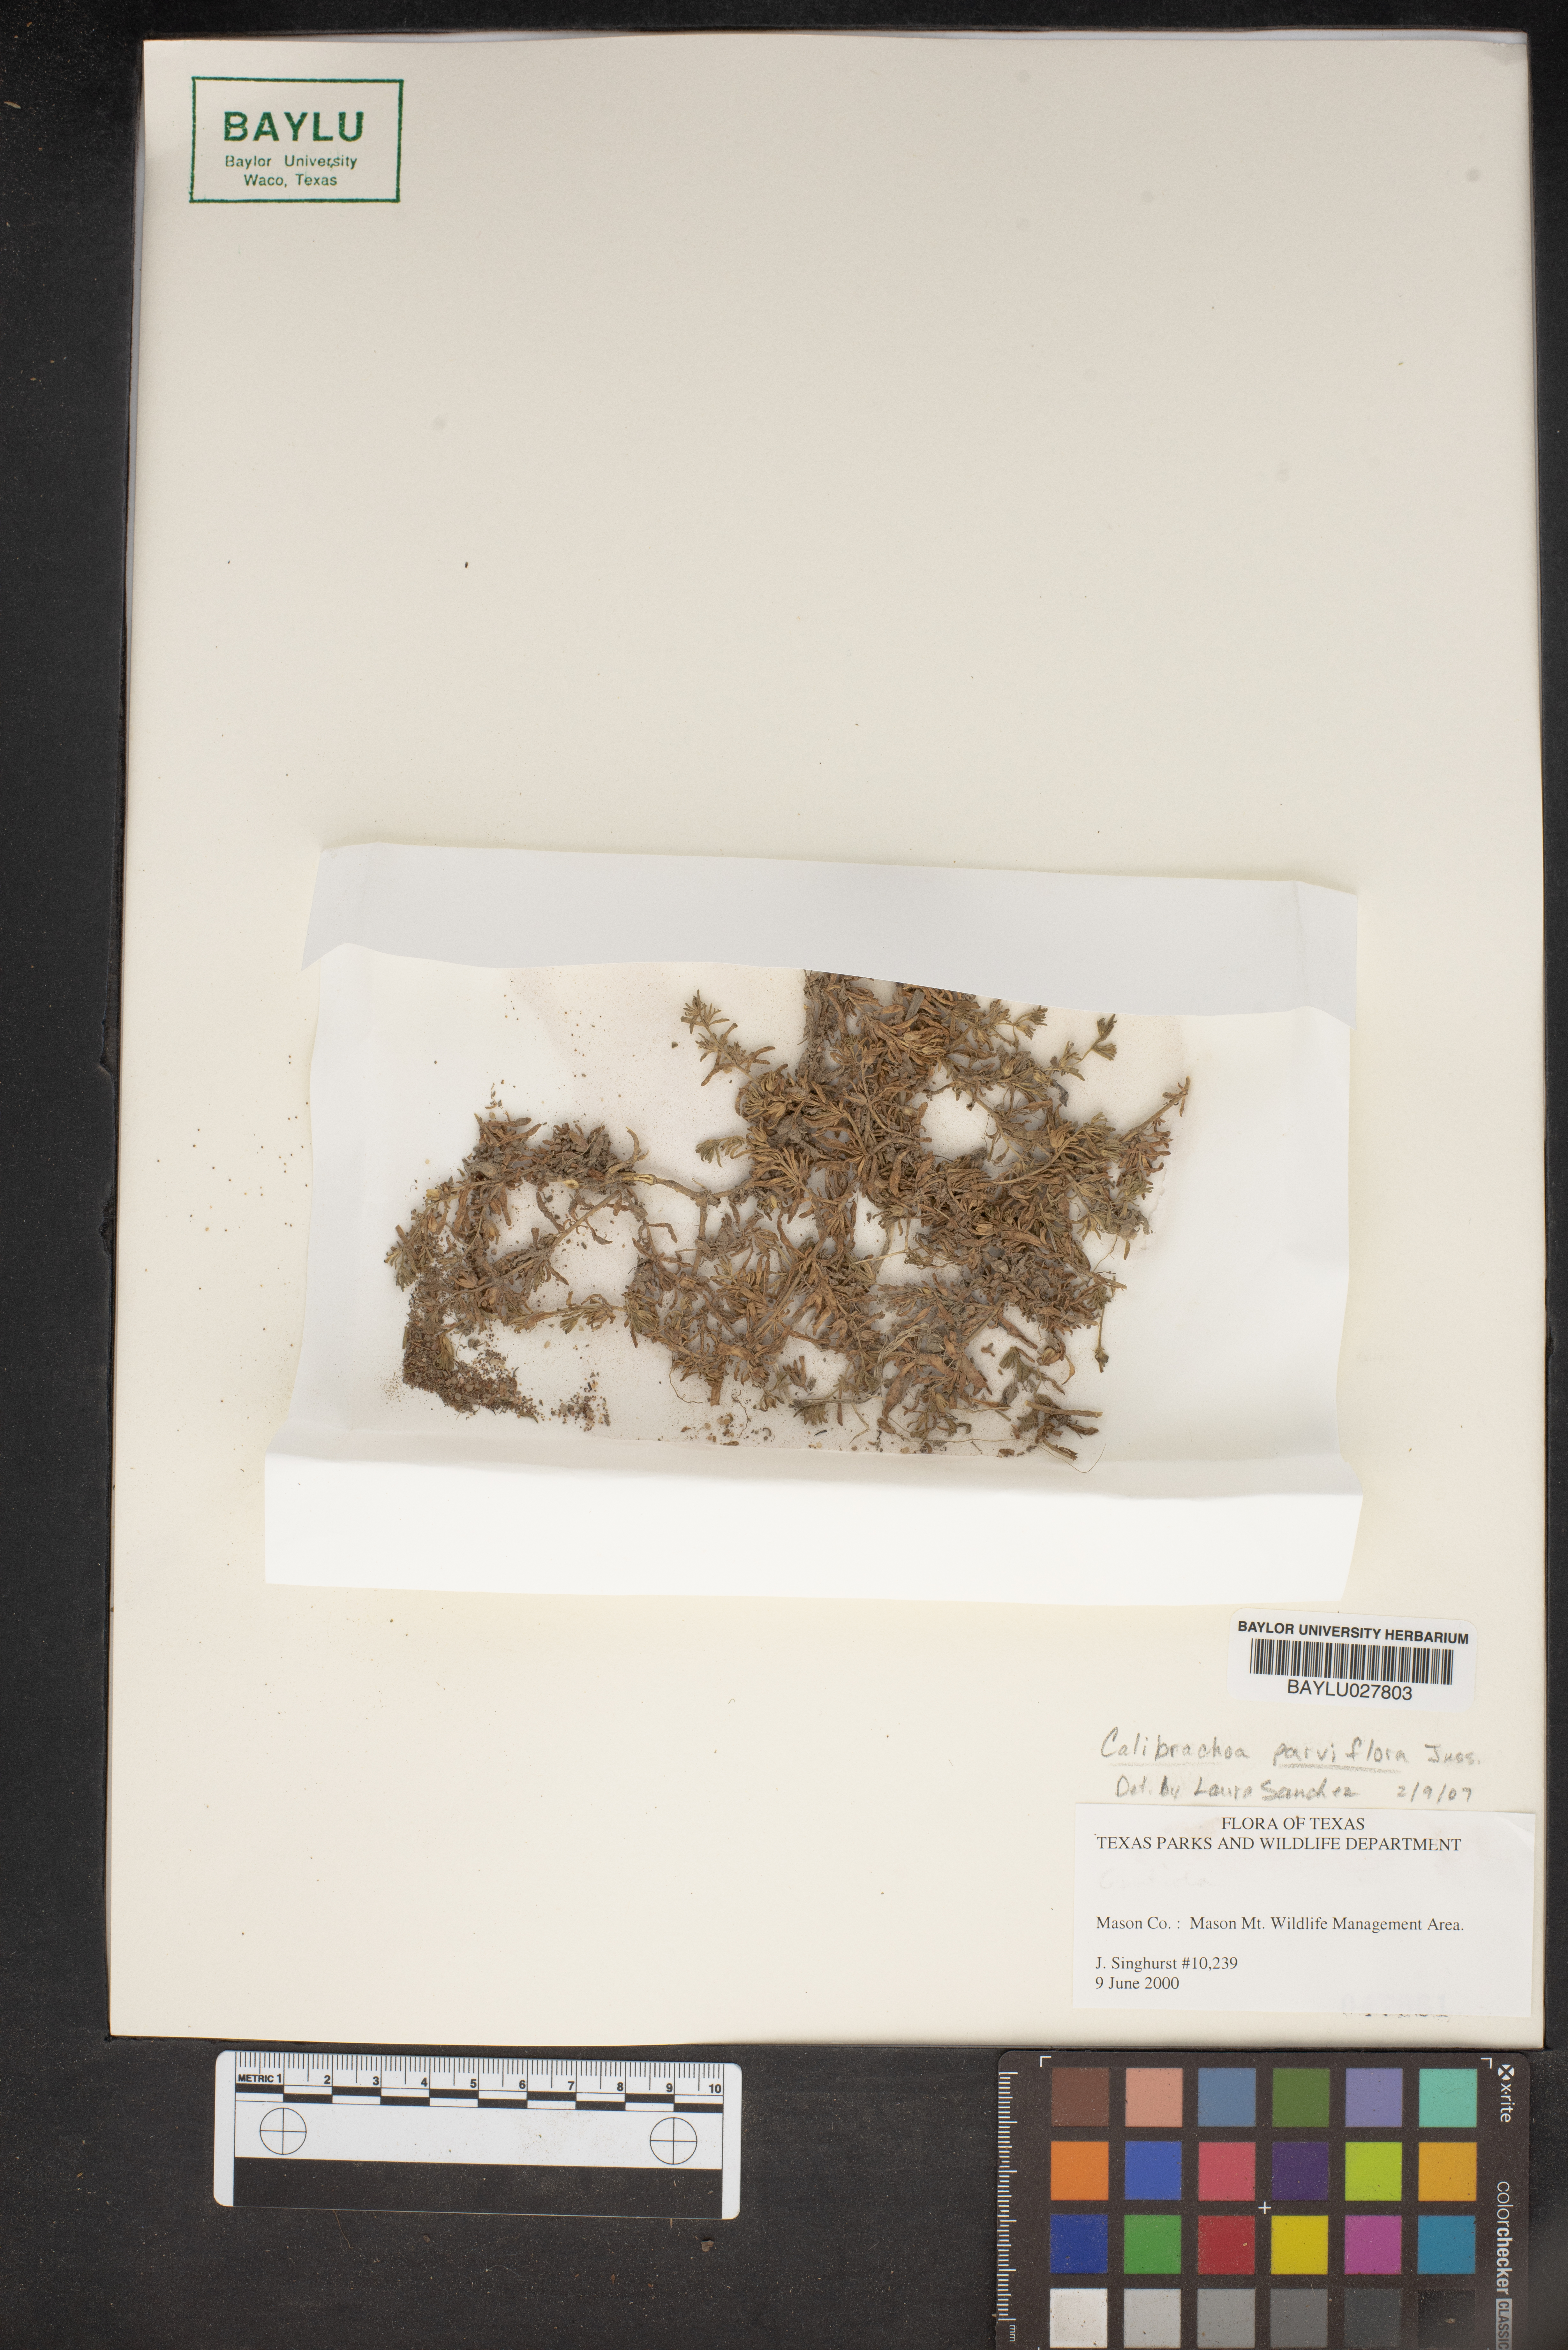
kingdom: Plantae
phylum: Tracheophyta
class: Magnoliopsida
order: Solanales
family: Solanaceae
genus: Calibrachoa
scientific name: Calibrachoa parviflora
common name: Seaside petunia
